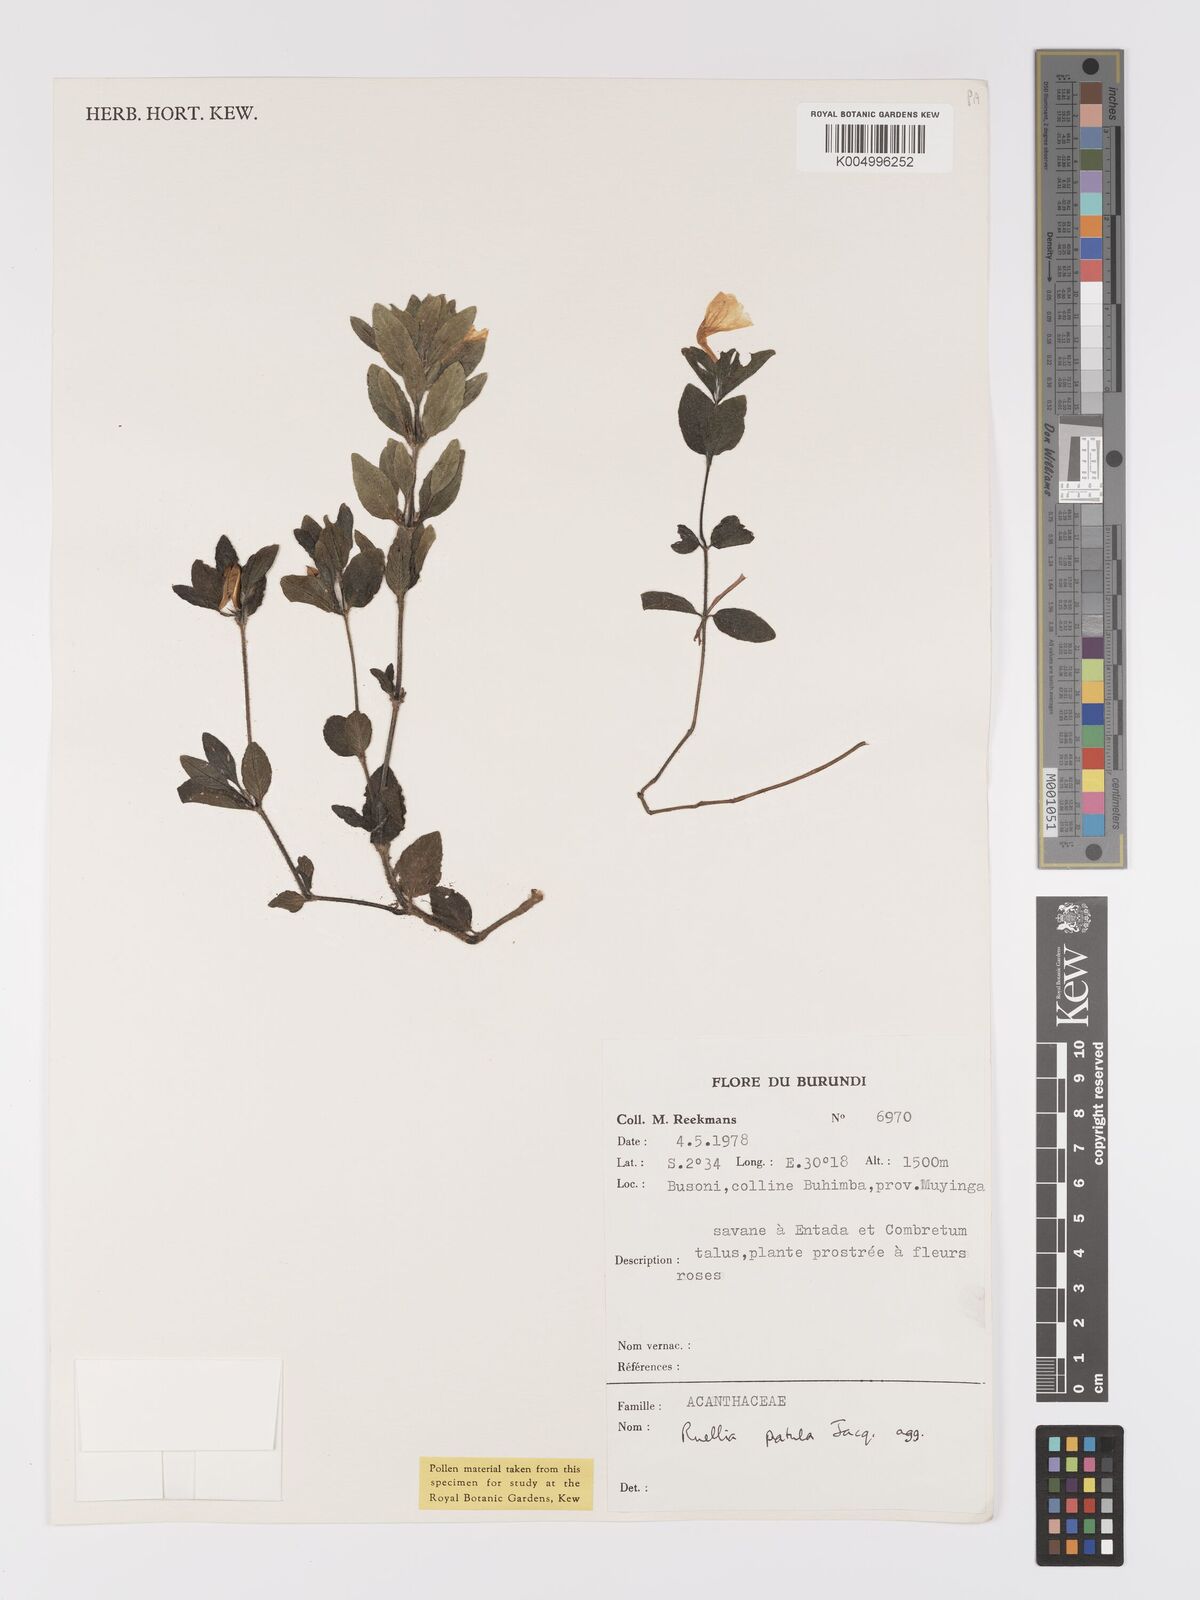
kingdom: Plantae
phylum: Tracheophyta
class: Magnoliopsida
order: Lamiales
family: Acanthaceae
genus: Ruellia
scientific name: Ruellia patula
